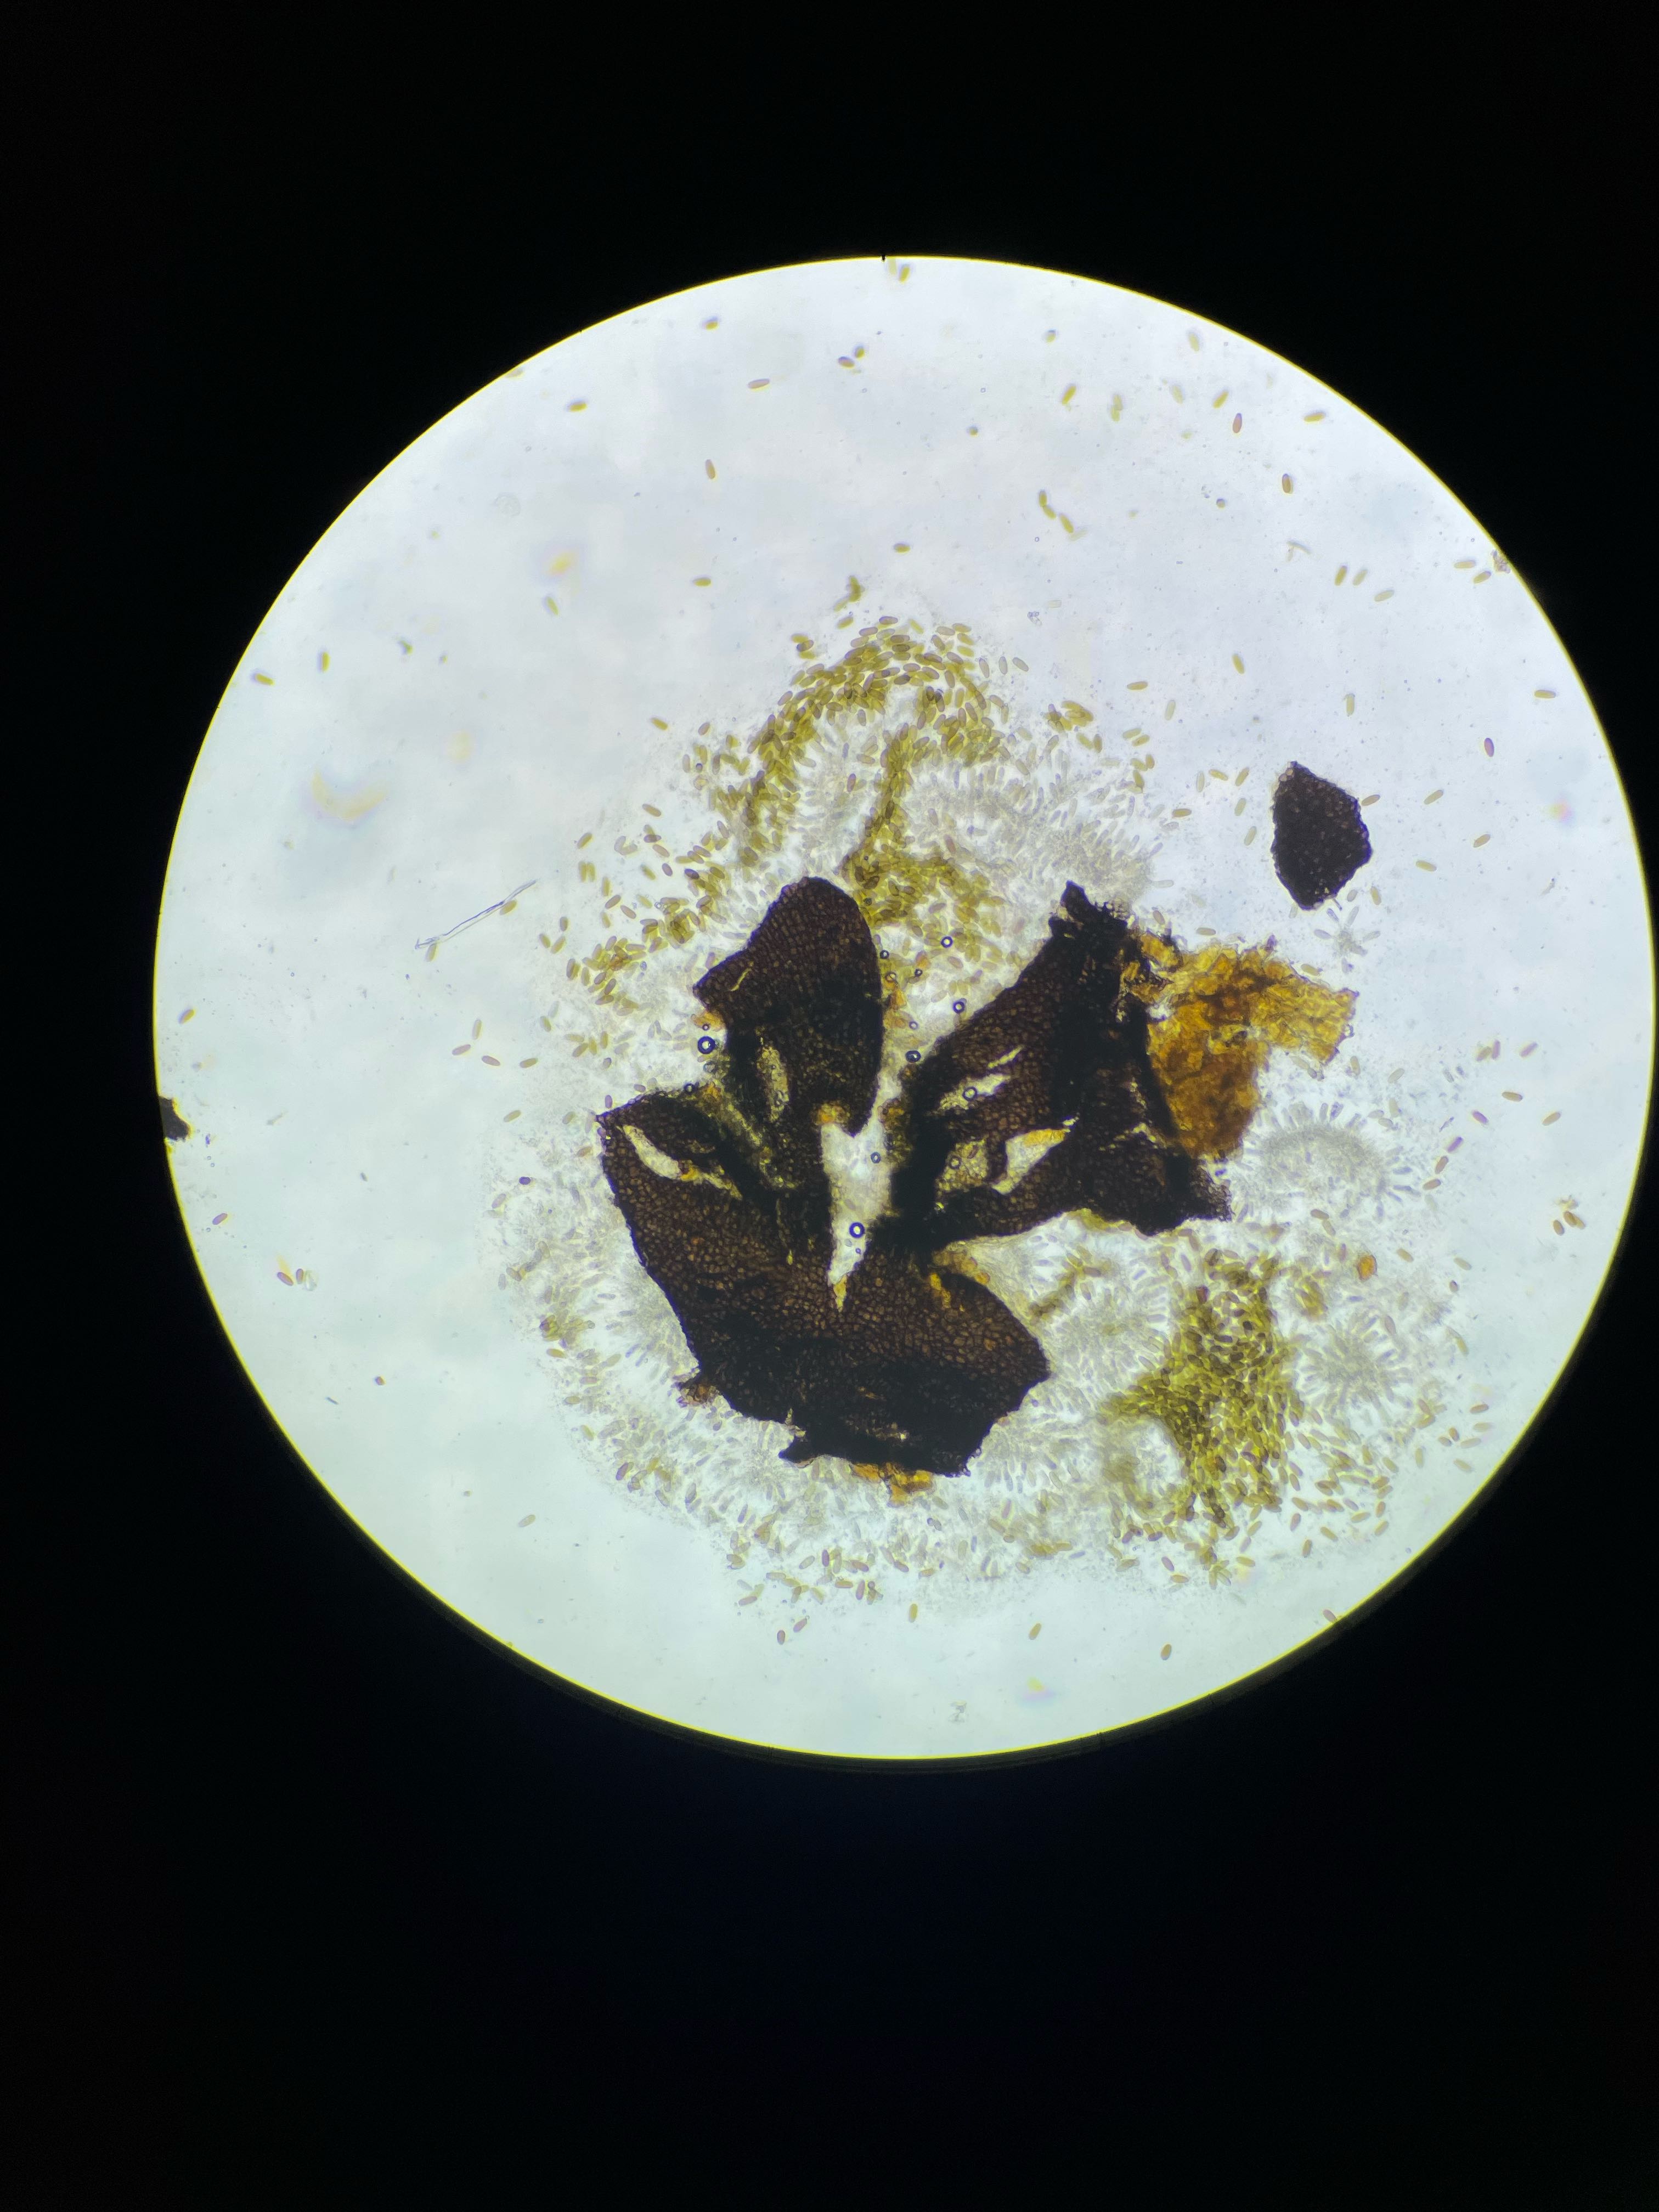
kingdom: Fungi
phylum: Ascomycota
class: Dothideomycetes
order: Botryosphaeriales
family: Botryosphaeriaceae
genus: Diplodia
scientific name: Diplodia crataegi
